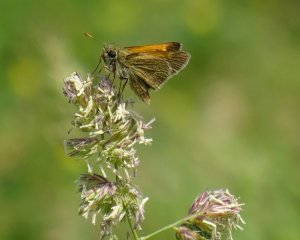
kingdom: Animalia
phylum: Arthropoda
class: Insecta
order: Lepidoptera
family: Hesperiidae
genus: Polites
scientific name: Polites themistocles
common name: Tawny-edged Skipper
